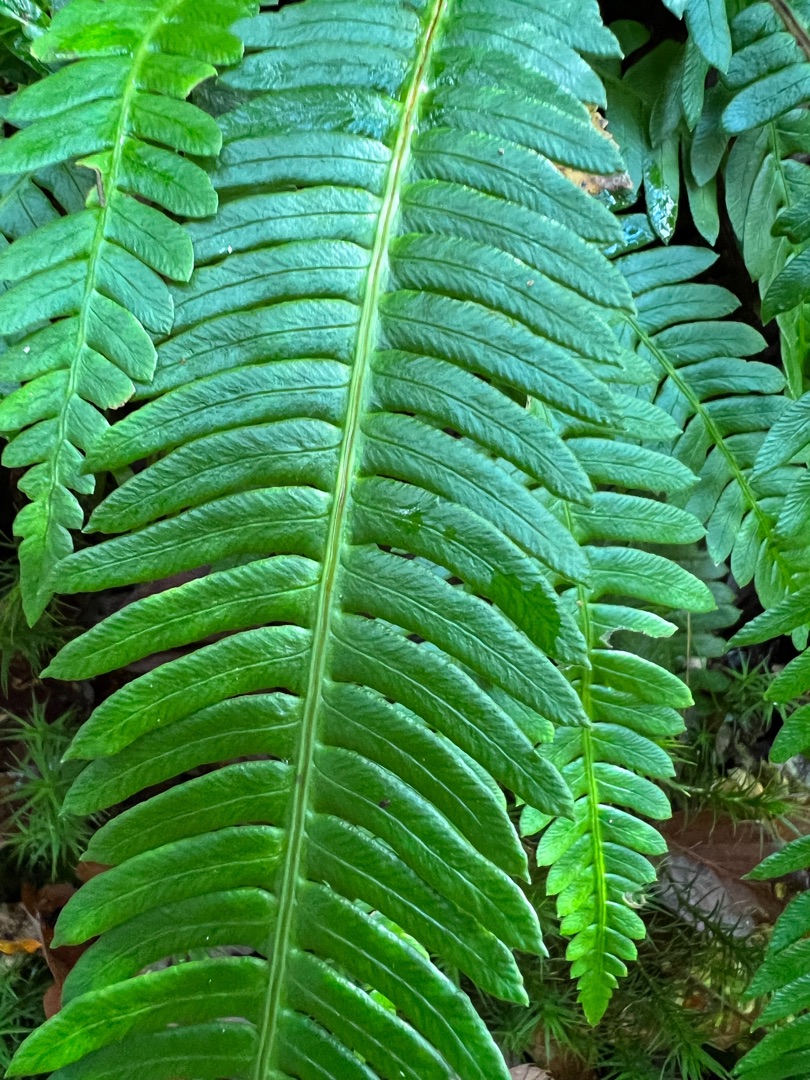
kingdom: Plantae
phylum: Tracheophyta
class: Polypodiopsida
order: Polypodiales
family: Blechnaceae
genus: Struthiopteris
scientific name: Struthiopteris spicant
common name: Kambregne
